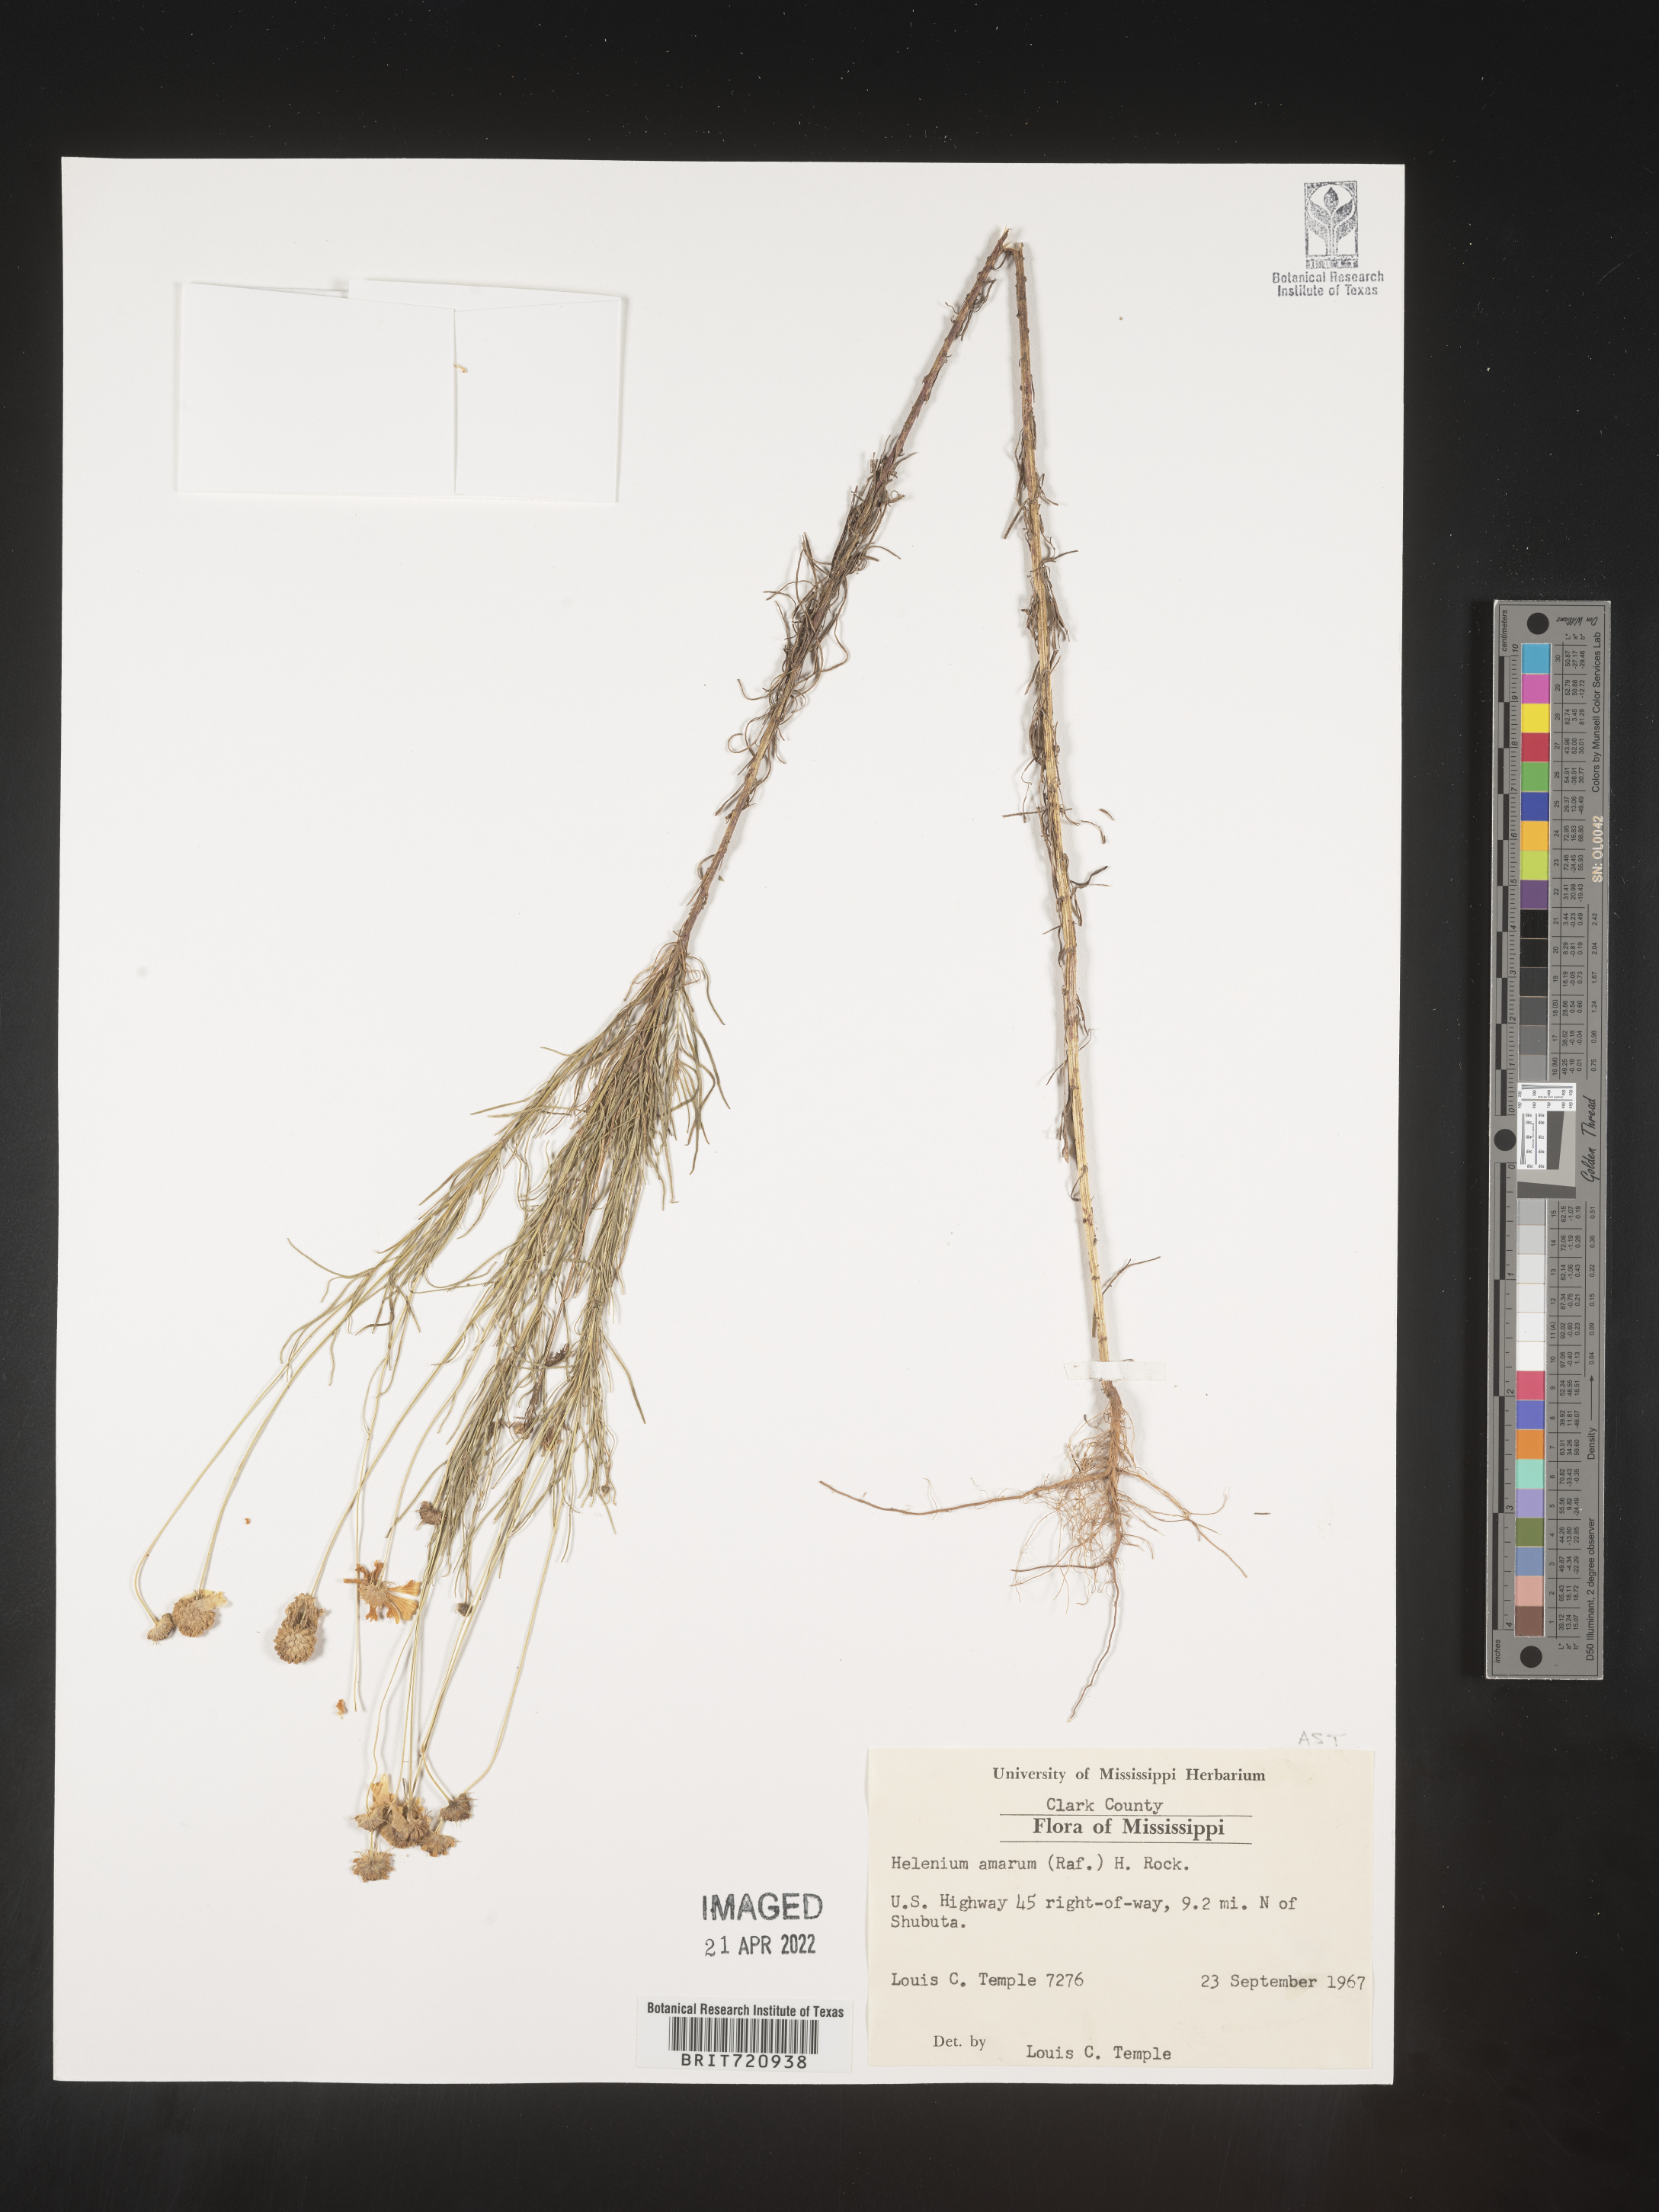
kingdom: Plantae
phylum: Tracheophyta
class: Magnoliopsida
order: Asterales
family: Asteraceae
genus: Helenium
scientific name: Helenium amarum
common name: Bitter sneezeweed
